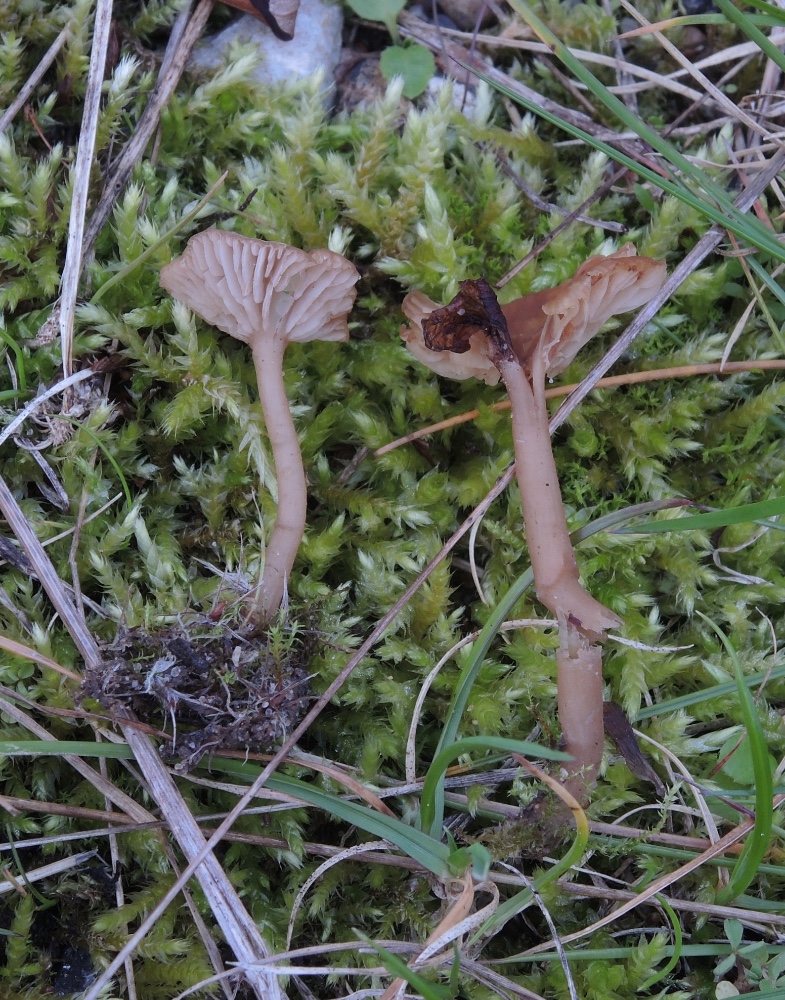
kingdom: Fungi
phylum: Basidiomycota
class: Agaricomycetes
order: Agaricales
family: Tricholomataceae
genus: Omphalina
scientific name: Omphalina pyxidata
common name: rødbrun navlehat
